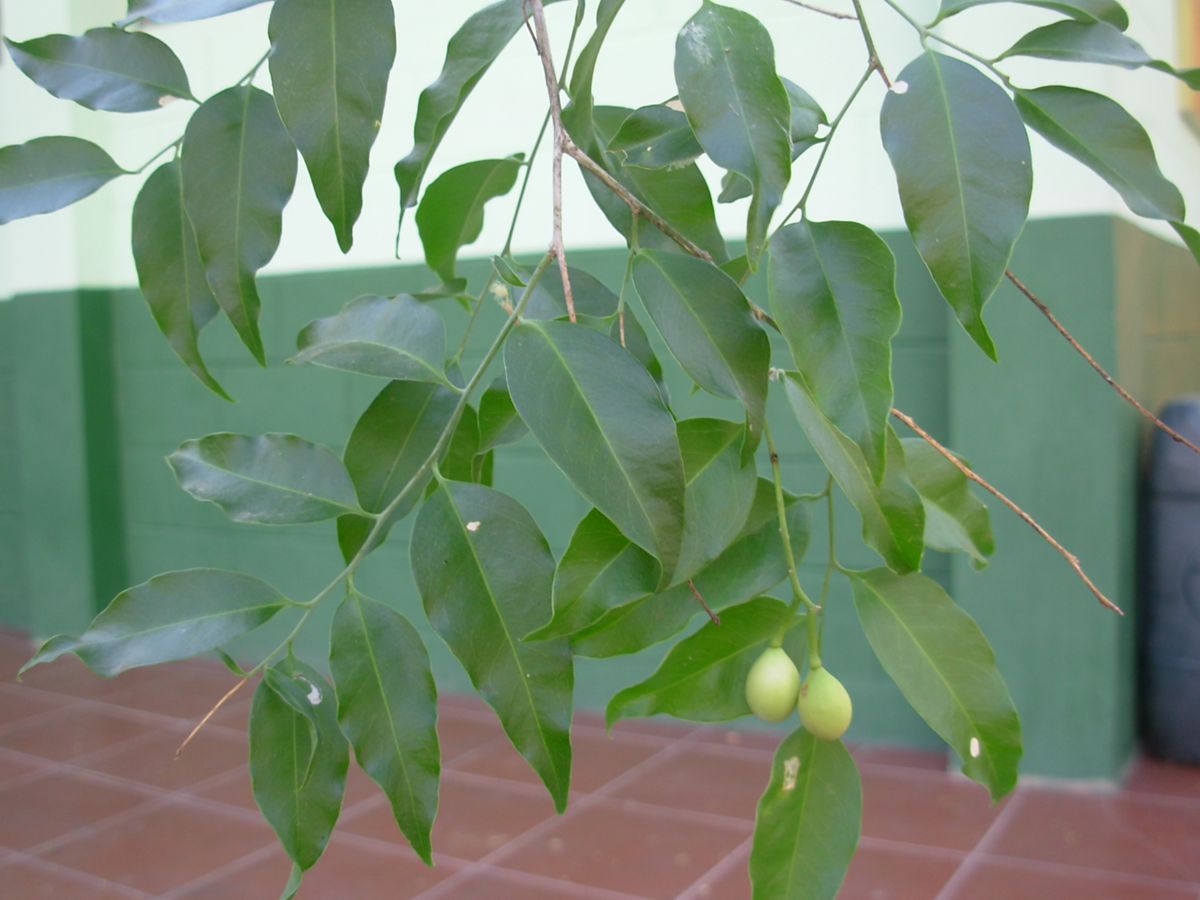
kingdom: Plantae
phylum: Tracheophyta
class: Magnoliopsida
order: Santalales
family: Opiliaceae
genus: Agonandra
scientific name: Agonandra racemosa
